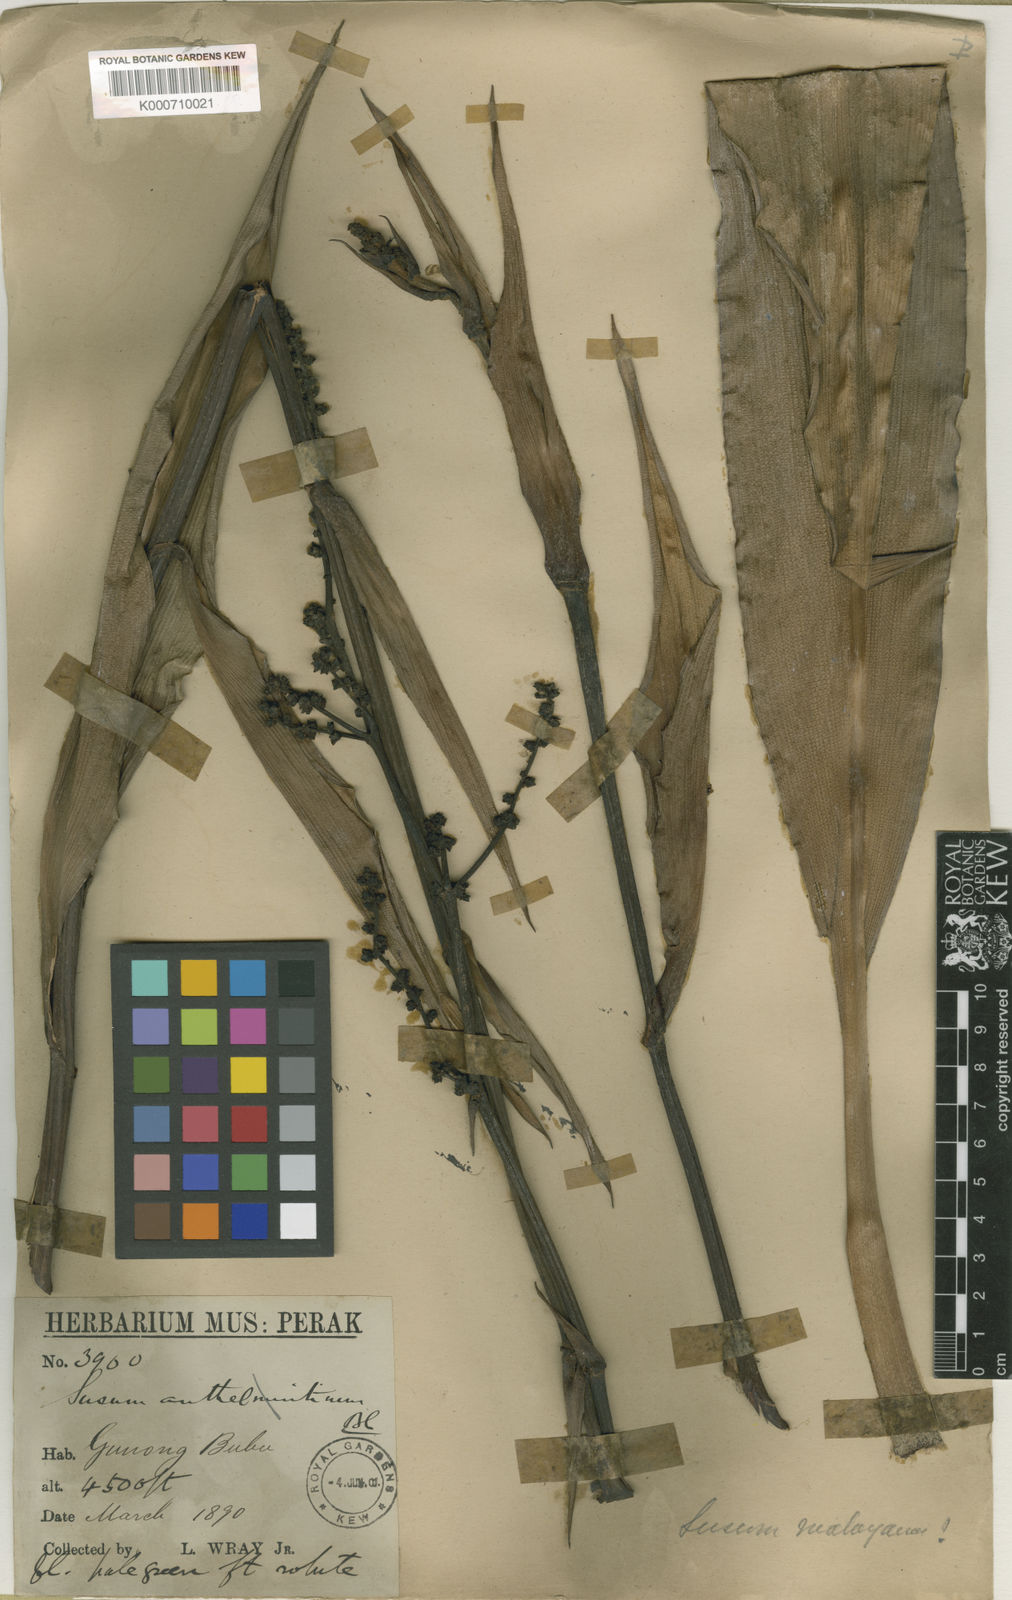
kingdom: Plantae
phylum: Tracheophyta
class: Liliopsida
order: Commelinales
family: Hanguanaceae
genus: Hanguana
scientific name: Hanguana malayana
